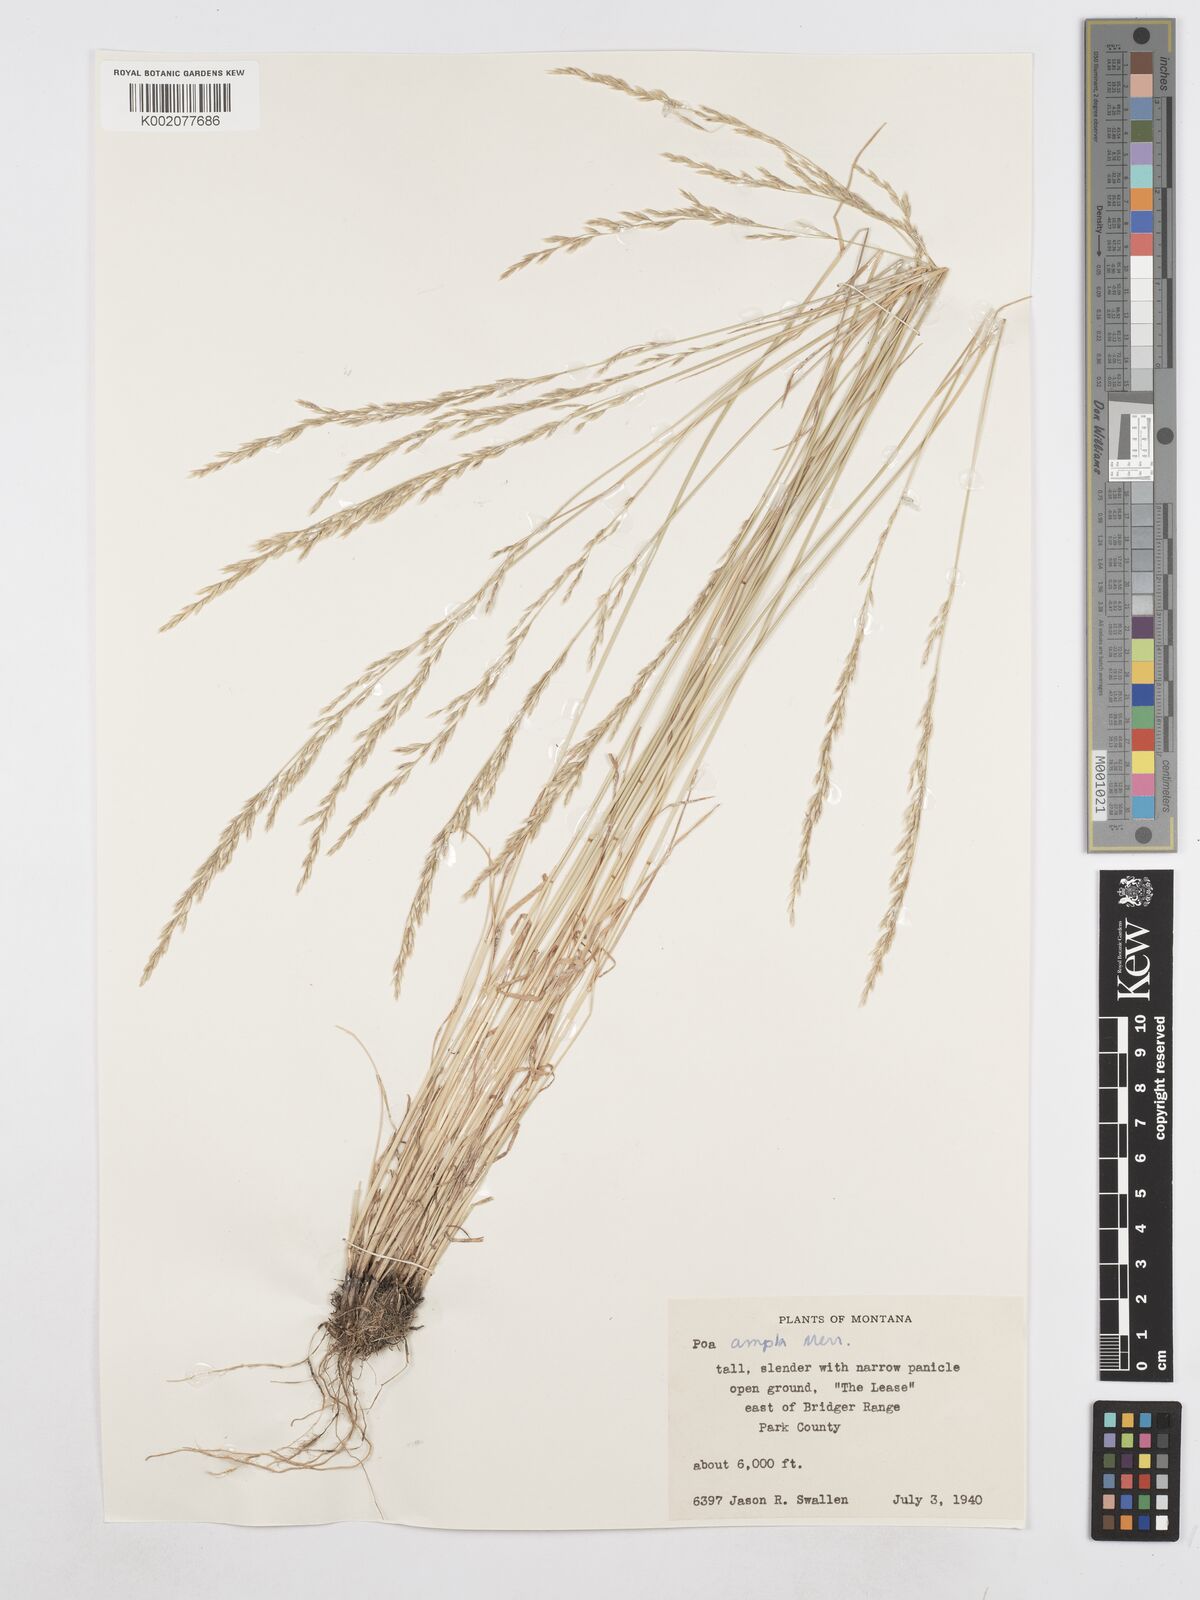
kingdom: Plantae
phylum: Tracheophyta
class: Liliopsida
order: Poales
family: Poaceae
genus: Poa
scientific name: Poa secunda
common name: Sandberg bluegrass
